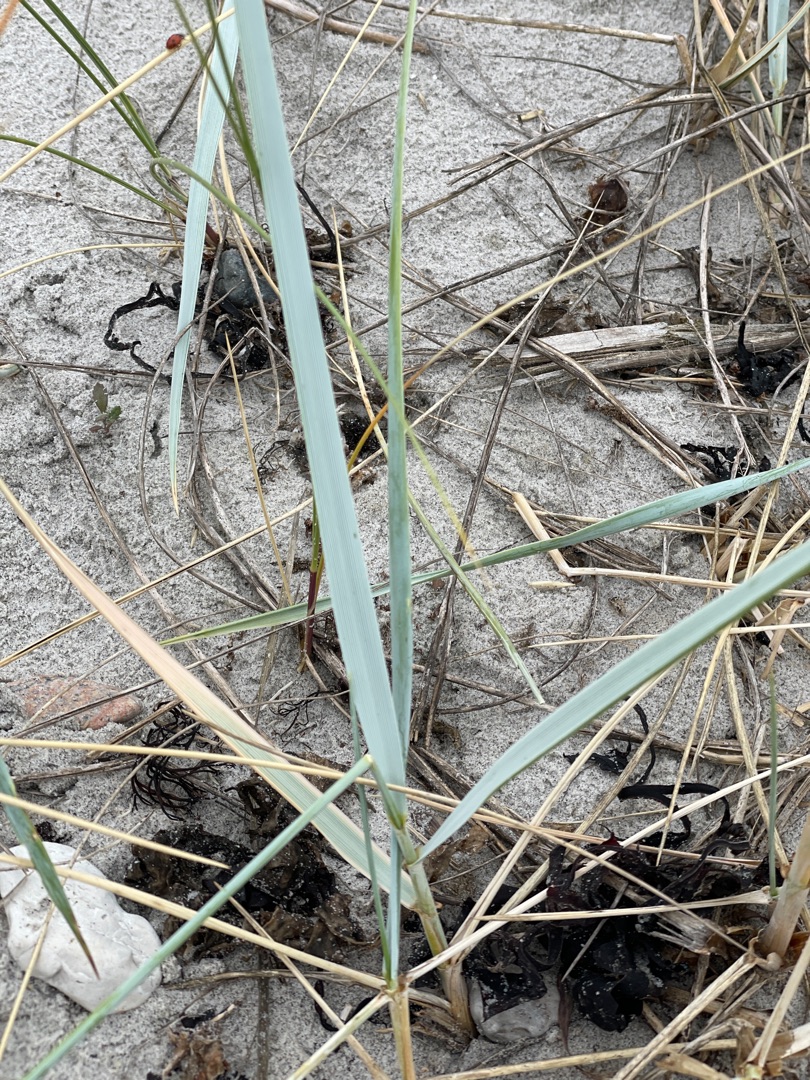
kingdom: Plantae
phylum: Tracheophyta
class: Liliopsida
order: Poales
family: Poaceae
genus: Leymus
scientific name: Leymus arenarius
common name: Marehalm
